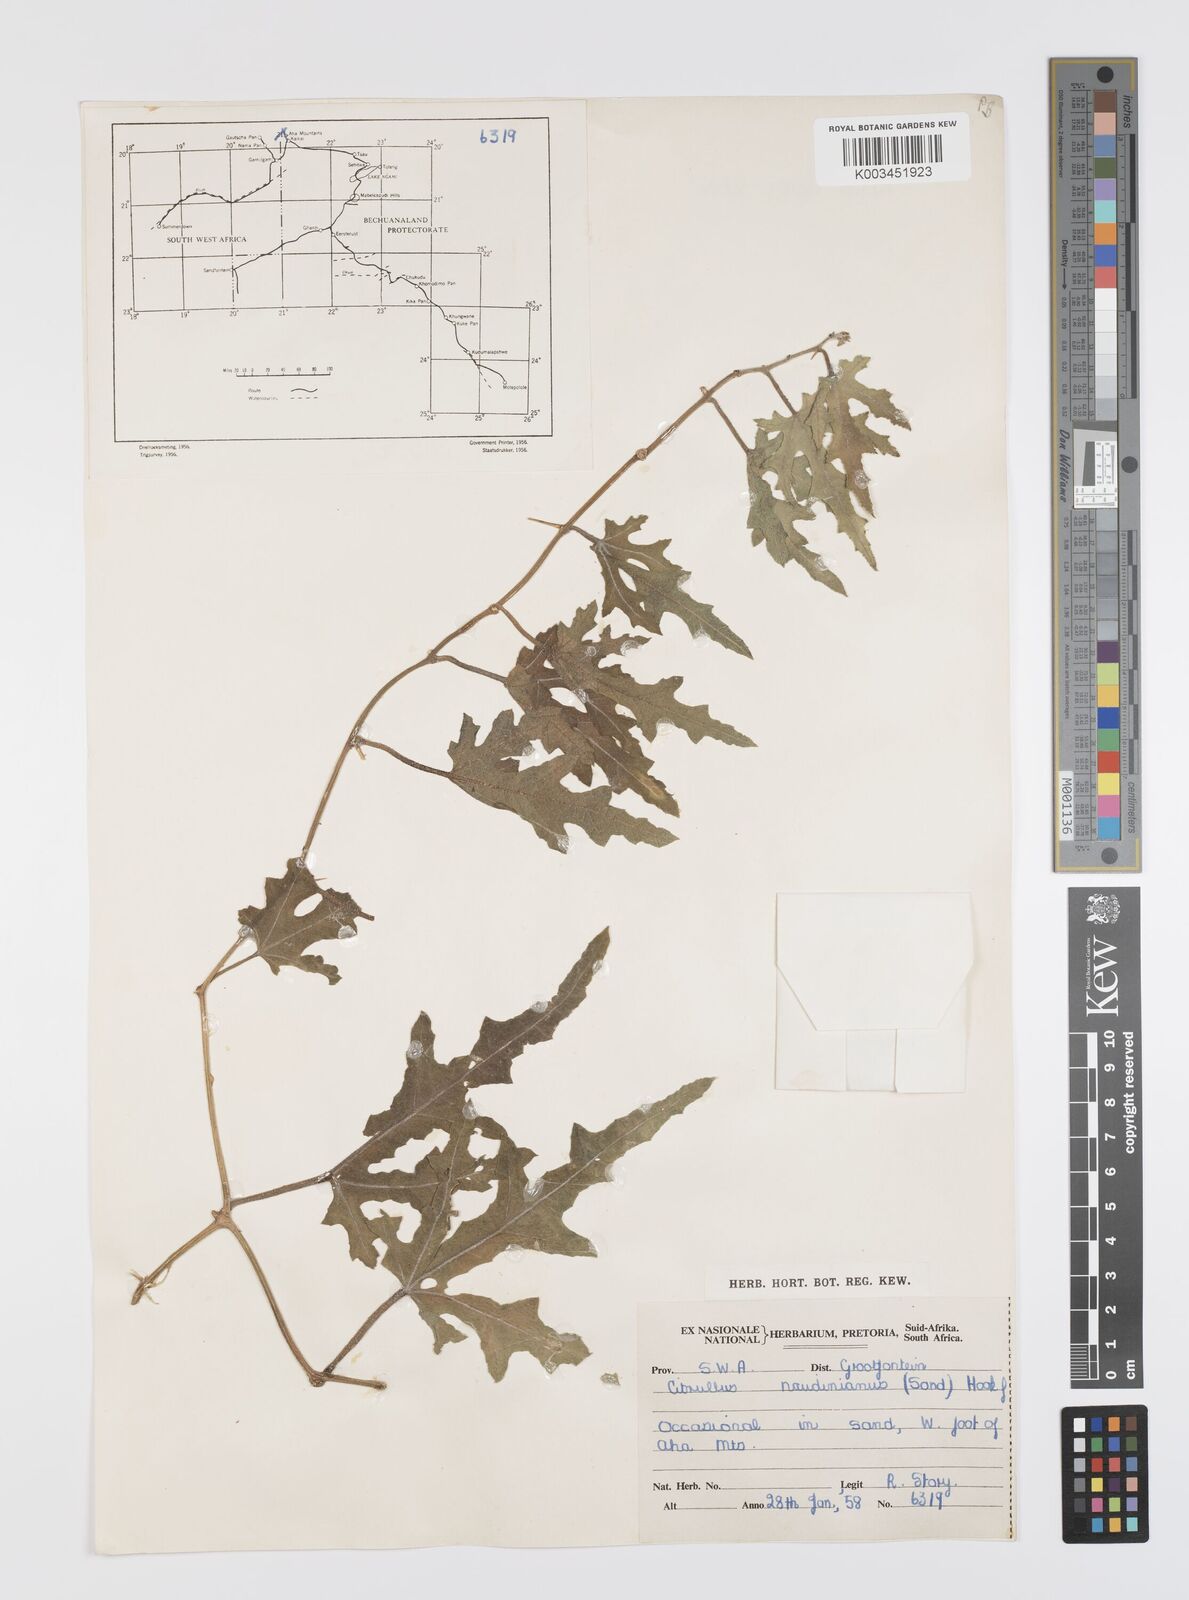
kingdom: Plantae
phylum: Tracheophyta
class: Magnoliopsida
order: Cucurbitales
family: Cucurbitaceae
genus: Citrullus
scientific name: Citrullus naudinianus
